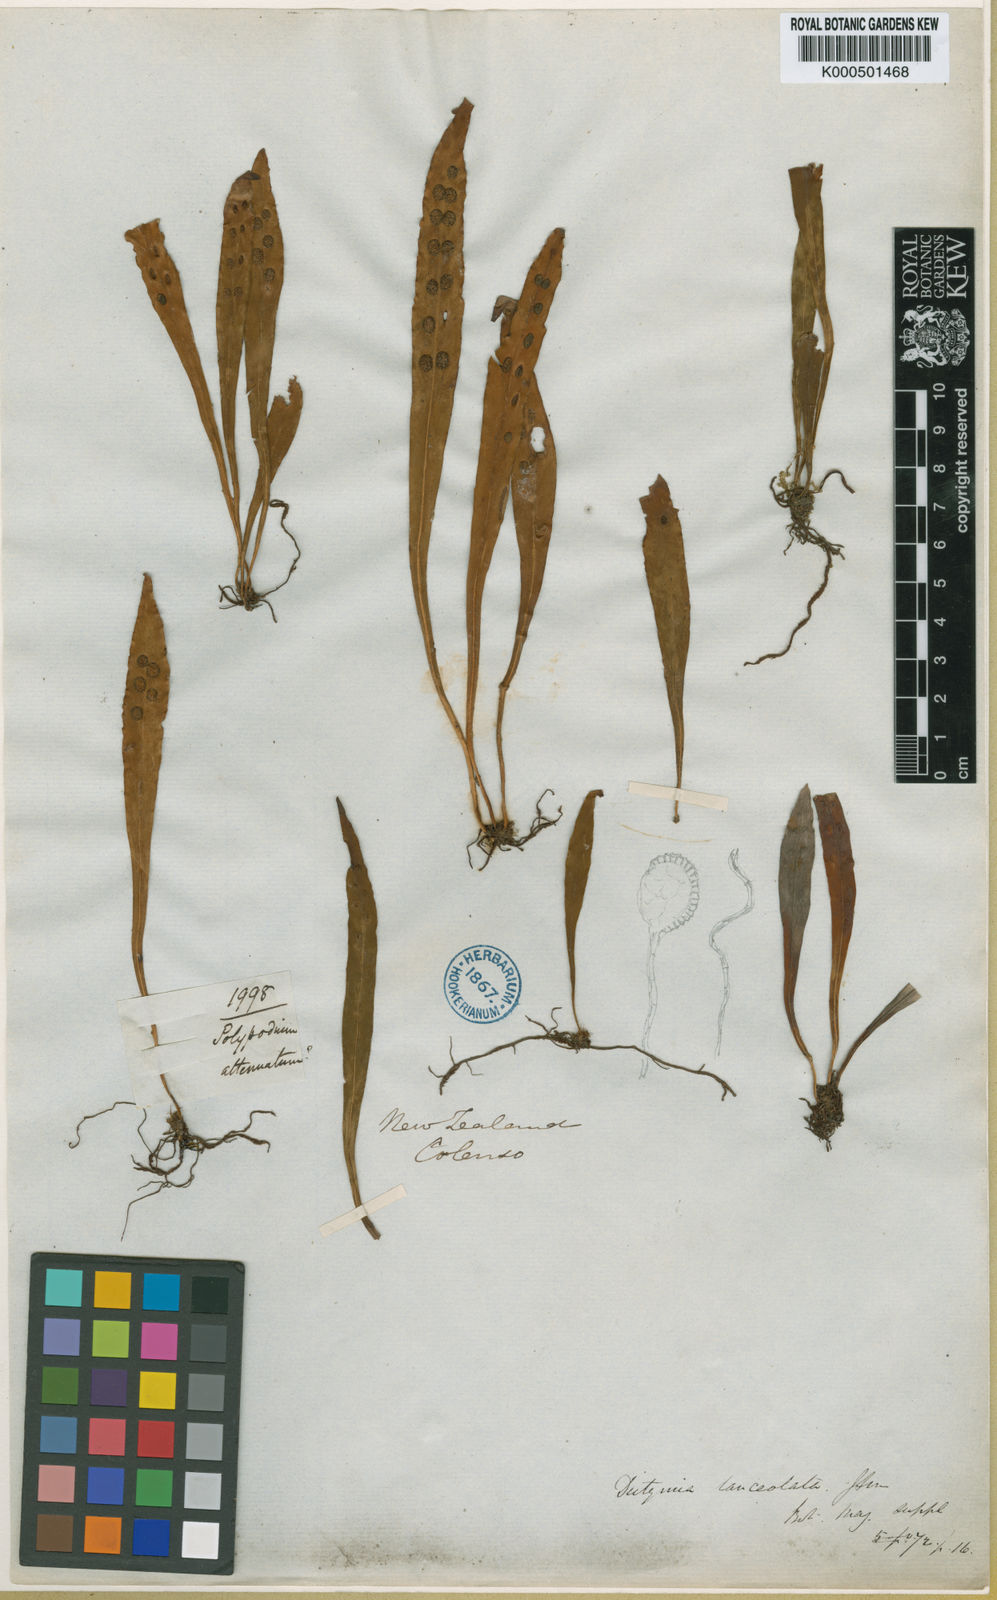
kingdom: Plantae
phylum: Tracheophyta
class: Polypodiopsida
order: Polypodiales
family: Polypodiaceae
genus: Loxogramme
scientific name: Loxogramme dictyopteris
